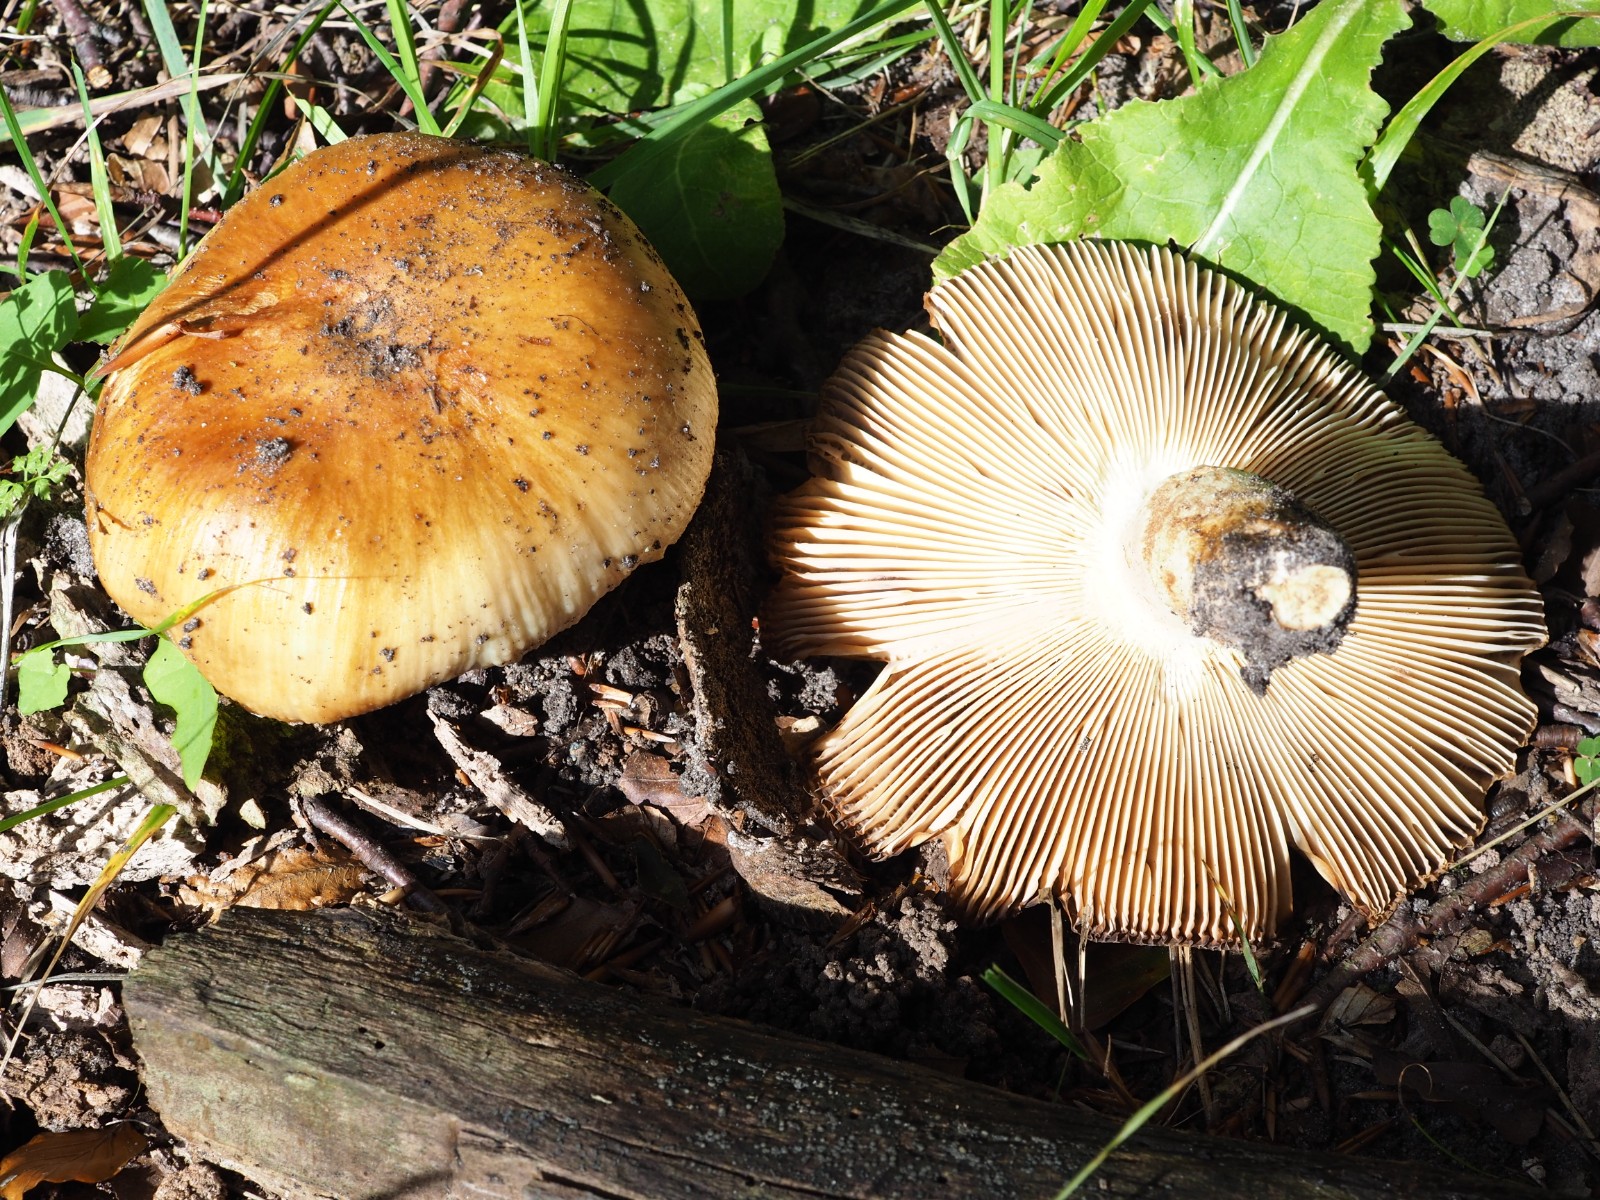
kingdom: Fungi
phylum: Basidiomycota
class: Agaricomycetes
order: Russulales
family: Russulaceae
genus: Russula
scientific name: Russula subfoetens
